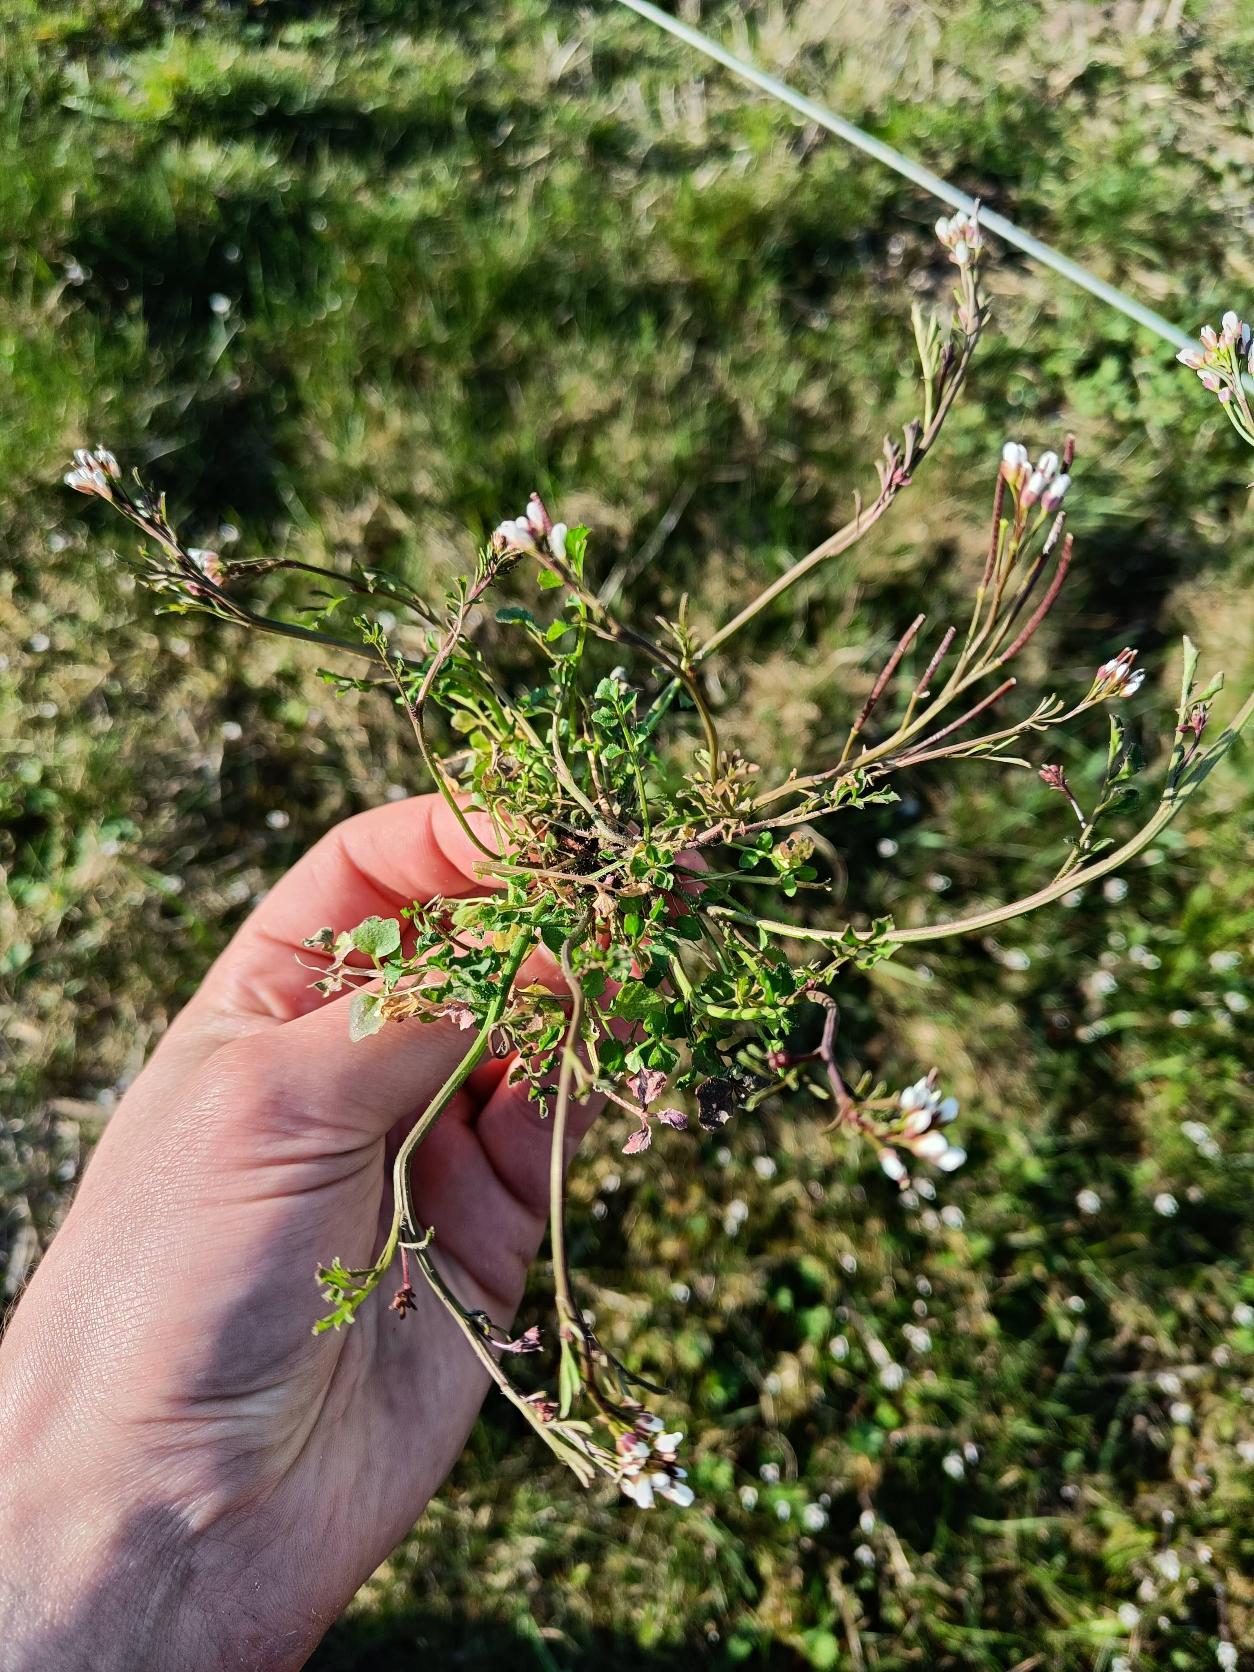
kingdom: Plantae
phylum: Tracheophyta
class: Magnoliopsida
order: Brassicales
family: Brassicaceae
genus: Cardamine
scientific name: Cardamine hirsuta
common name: Roset-springklap
